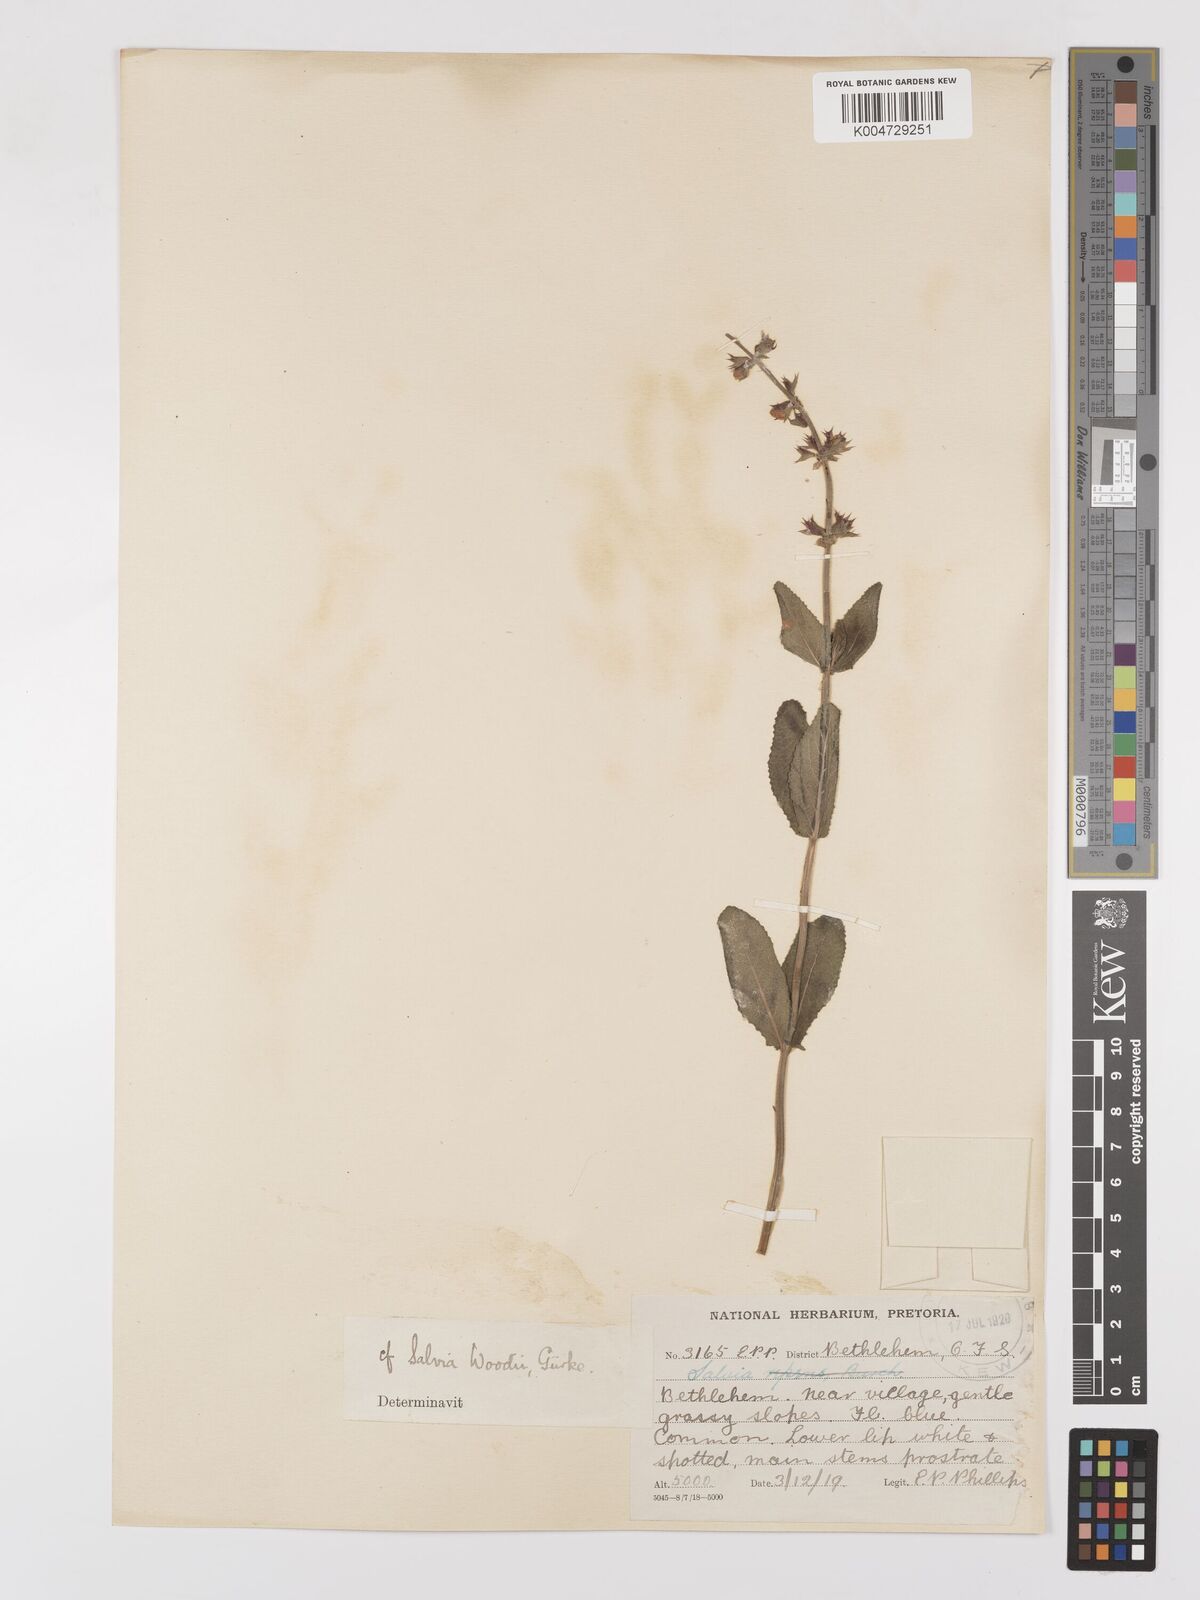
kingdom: Plantae
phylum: Tracheophyta
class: Magnoliopsida
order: Lamiales
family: Lamiaceae
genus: Salvia
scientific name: Salvia repens
